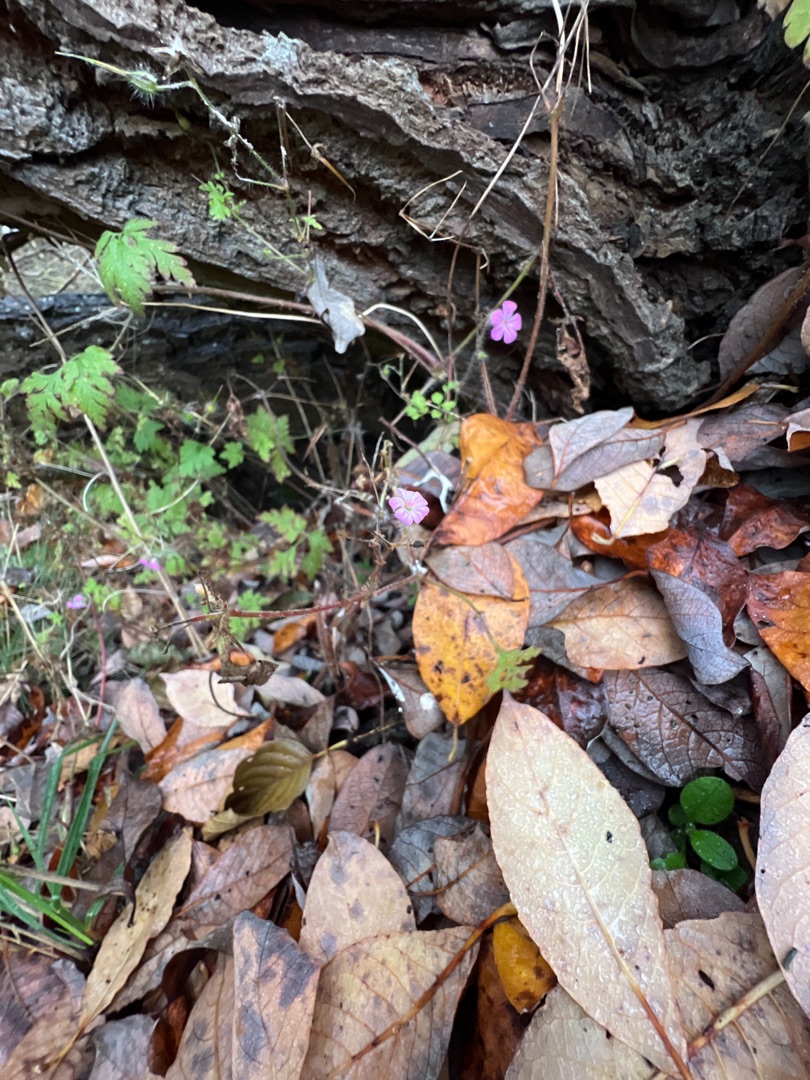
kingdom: Plantae
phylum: Tracheophyta
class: Magnoliopsida
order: Geraniales
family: Geraniaceae
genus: Geranium
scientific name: Geranium robertianum
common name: Stinkende storkenæb
